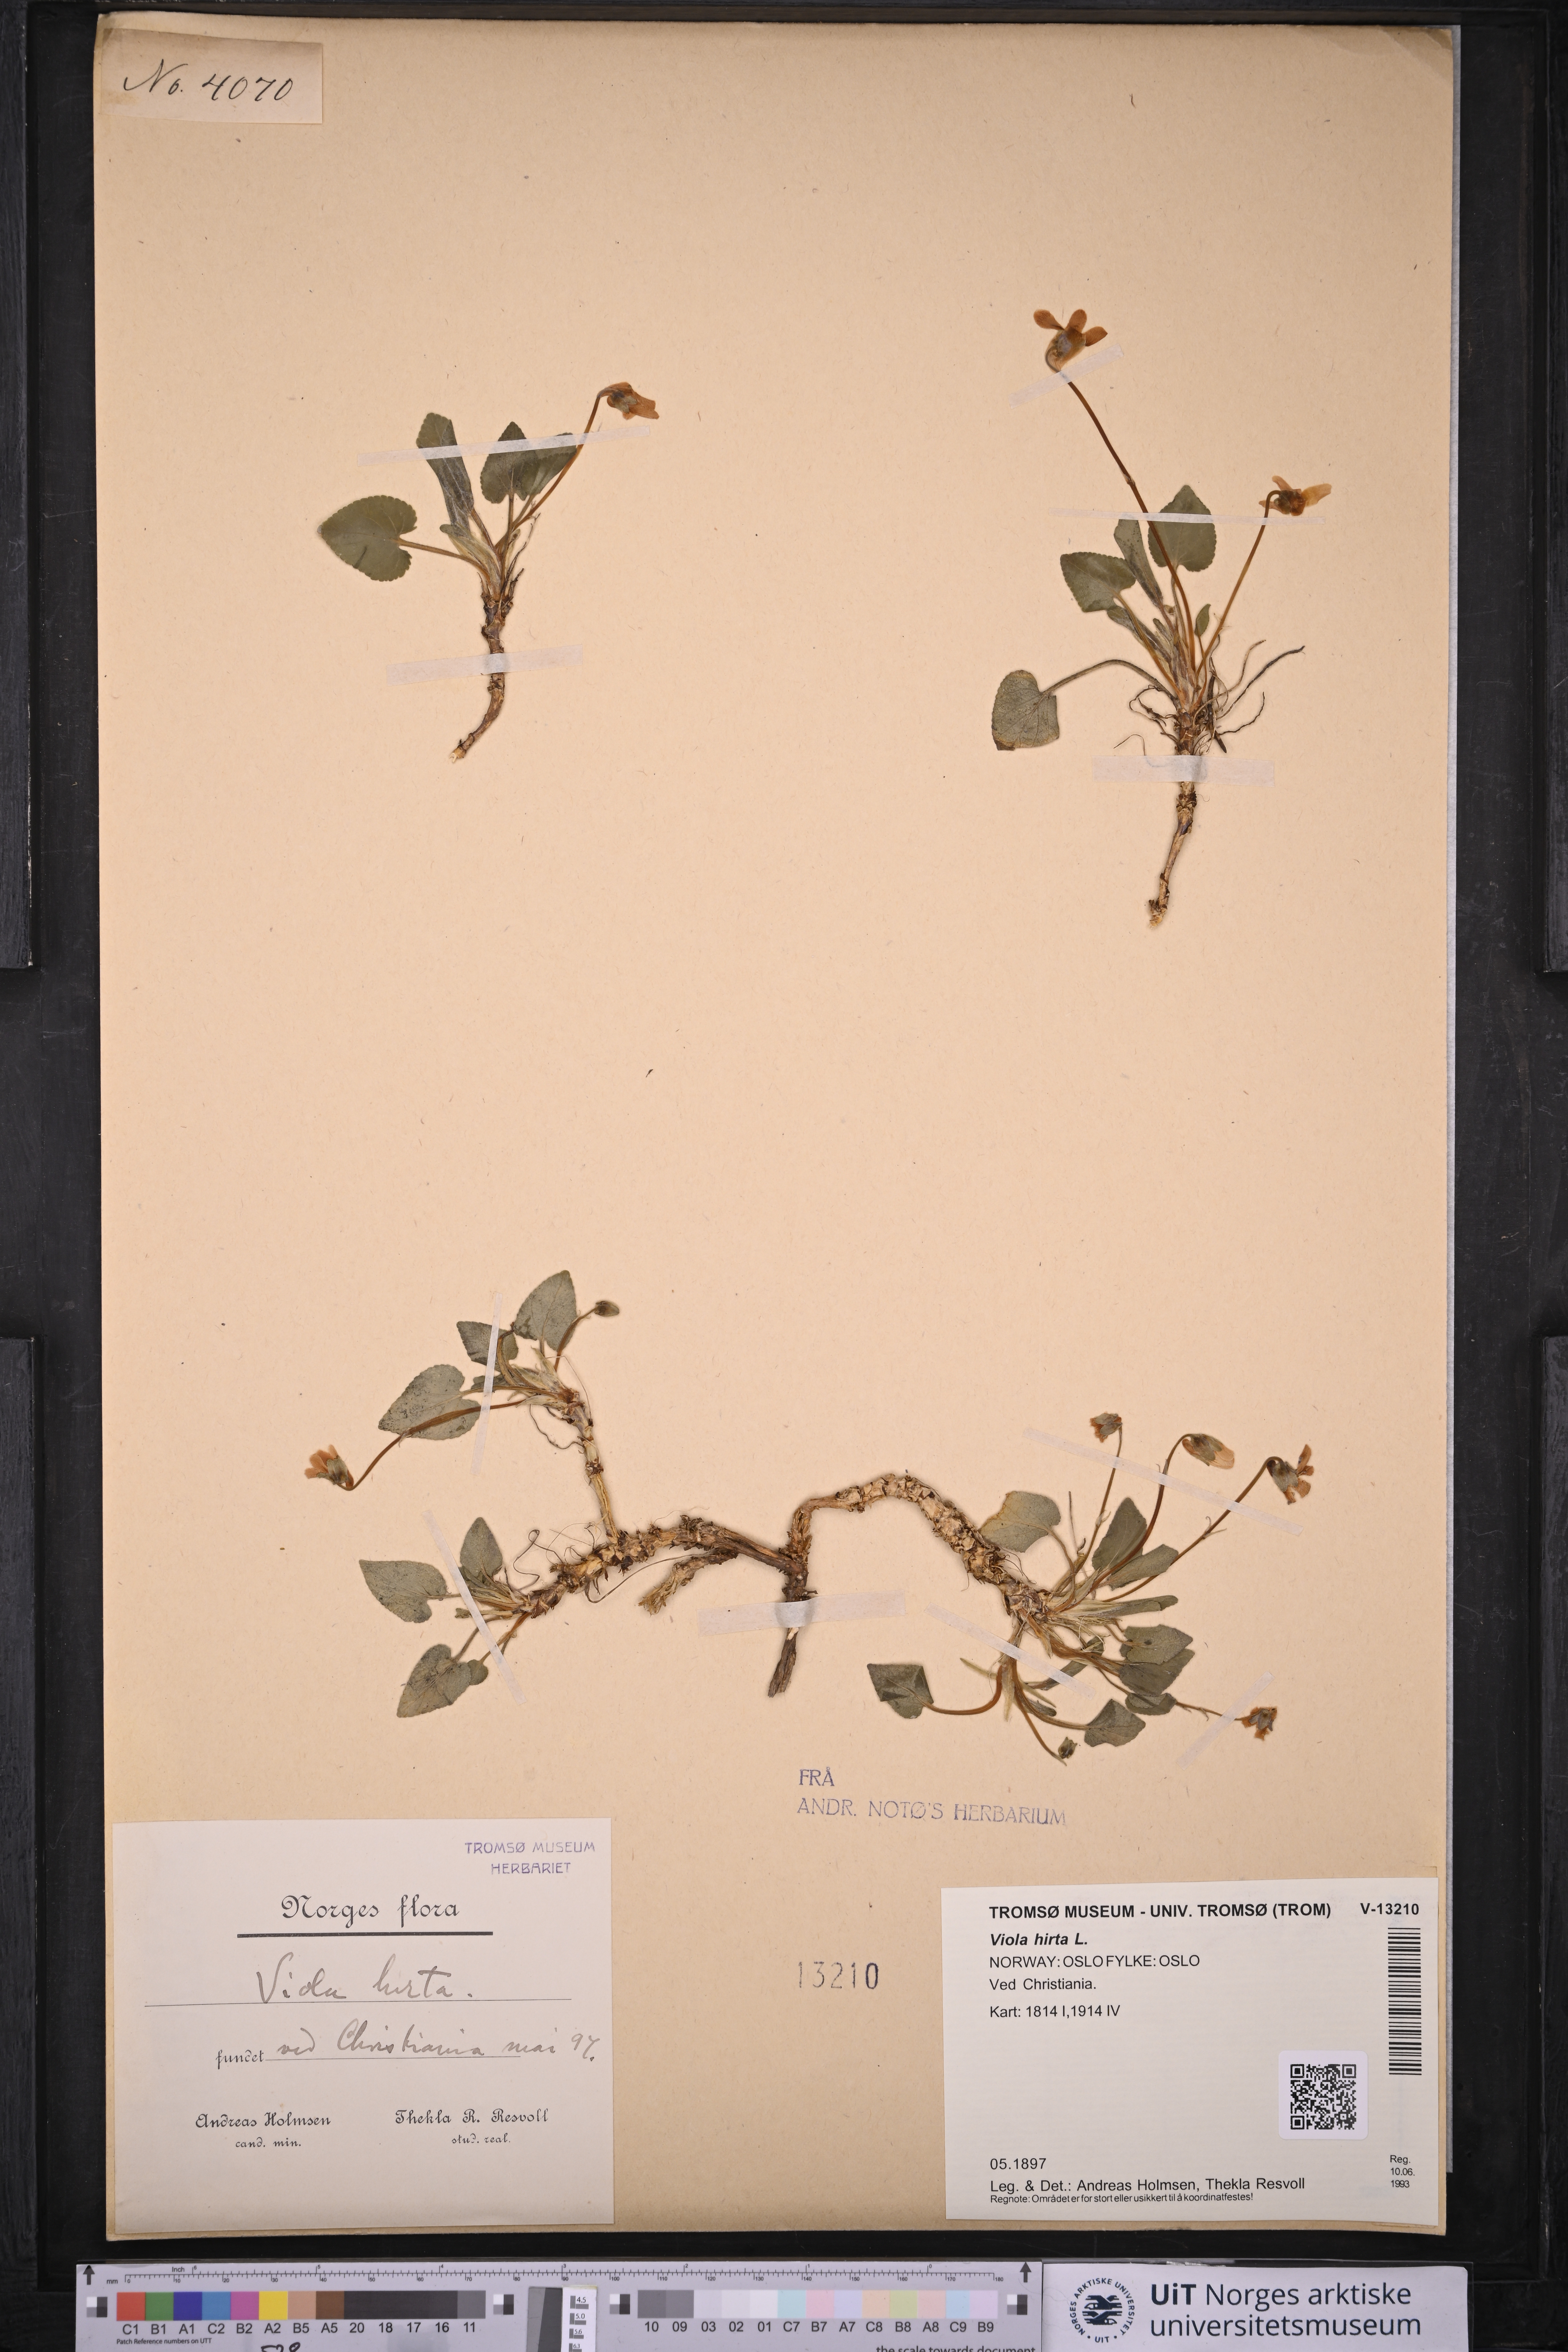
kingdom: Plantae
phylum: Tracheophyta
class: Magnoliopsida
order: Malpighiales
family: Violaceae
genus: Viola
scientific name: Viola hirta
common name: Hairy violet
